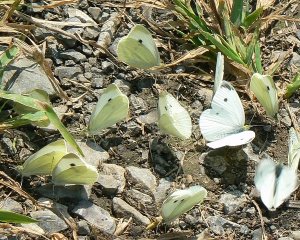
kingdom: Animalia
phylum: Arthropoda
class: Insecta
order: Lepidoptera
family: Pieridae
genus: Pieris
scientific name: Pieris rapae
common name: Cabbage White
